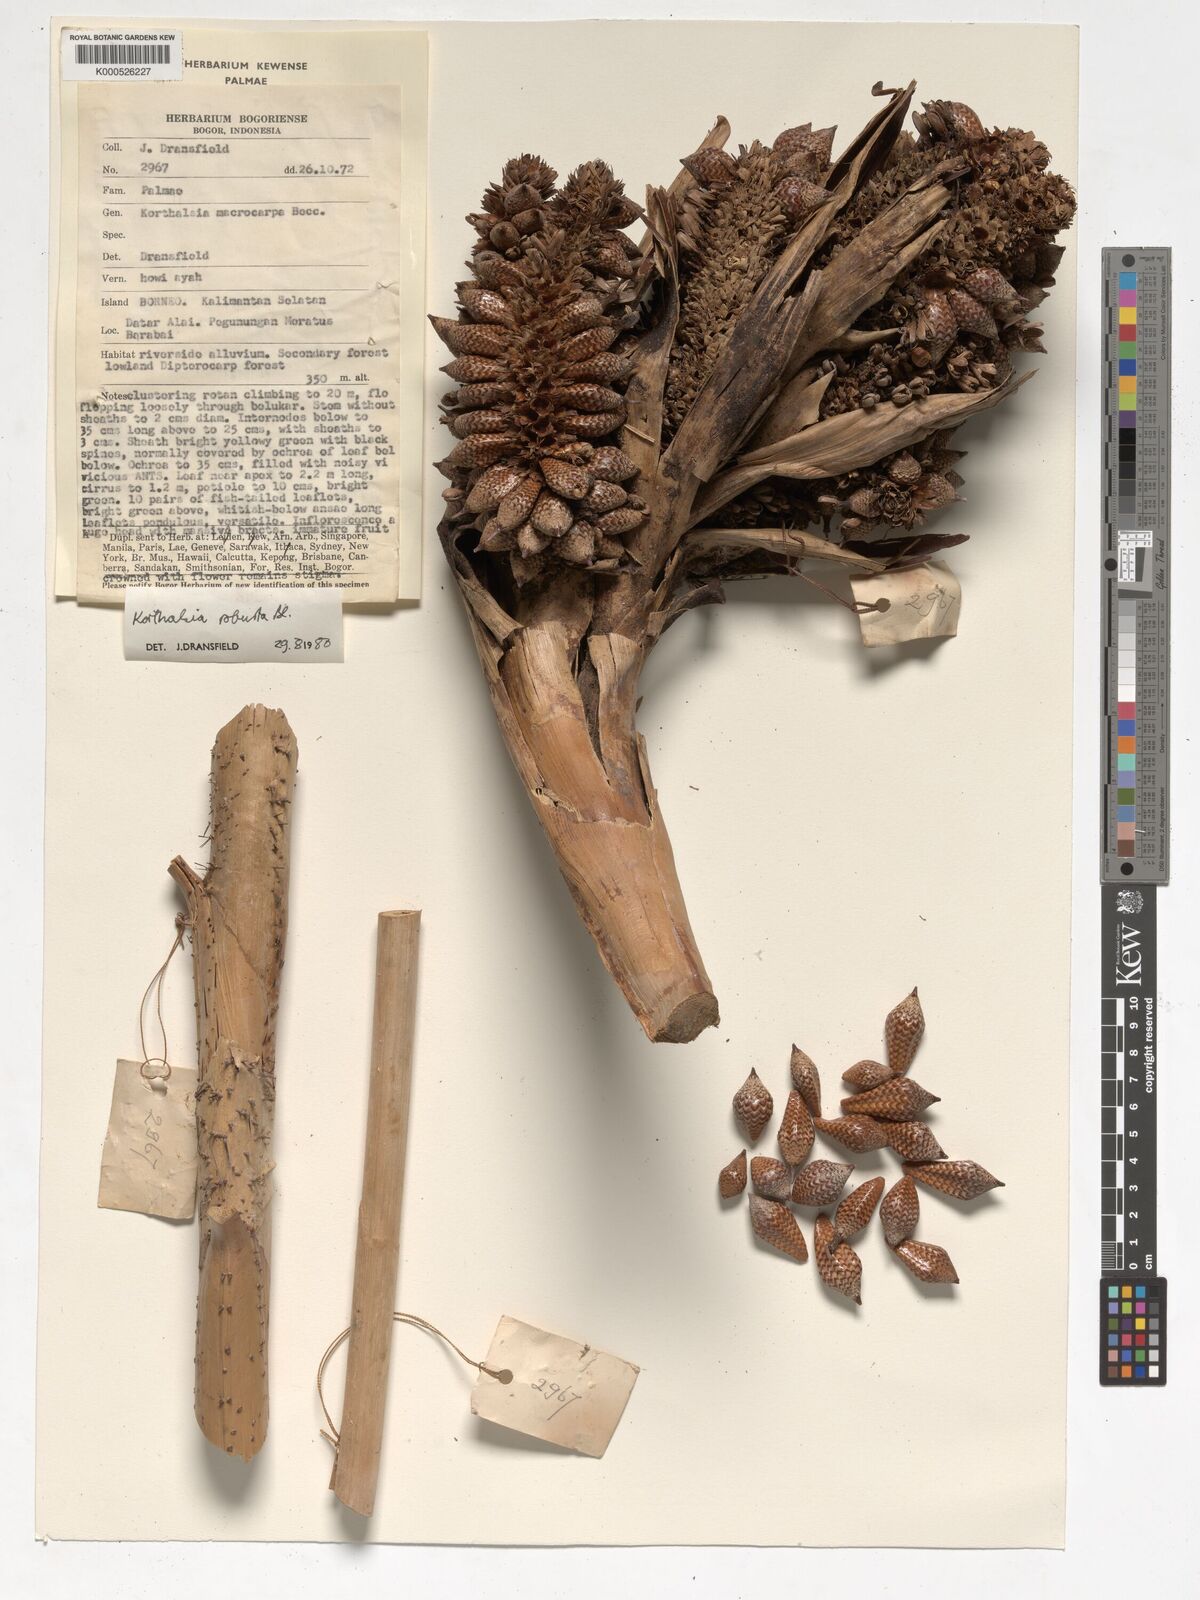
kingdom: Plantae
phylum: Tracheophyta
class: Liliopsida
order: Arecales
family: Arecaceae
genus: Korthalsia
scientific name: Korthalsia robusta
